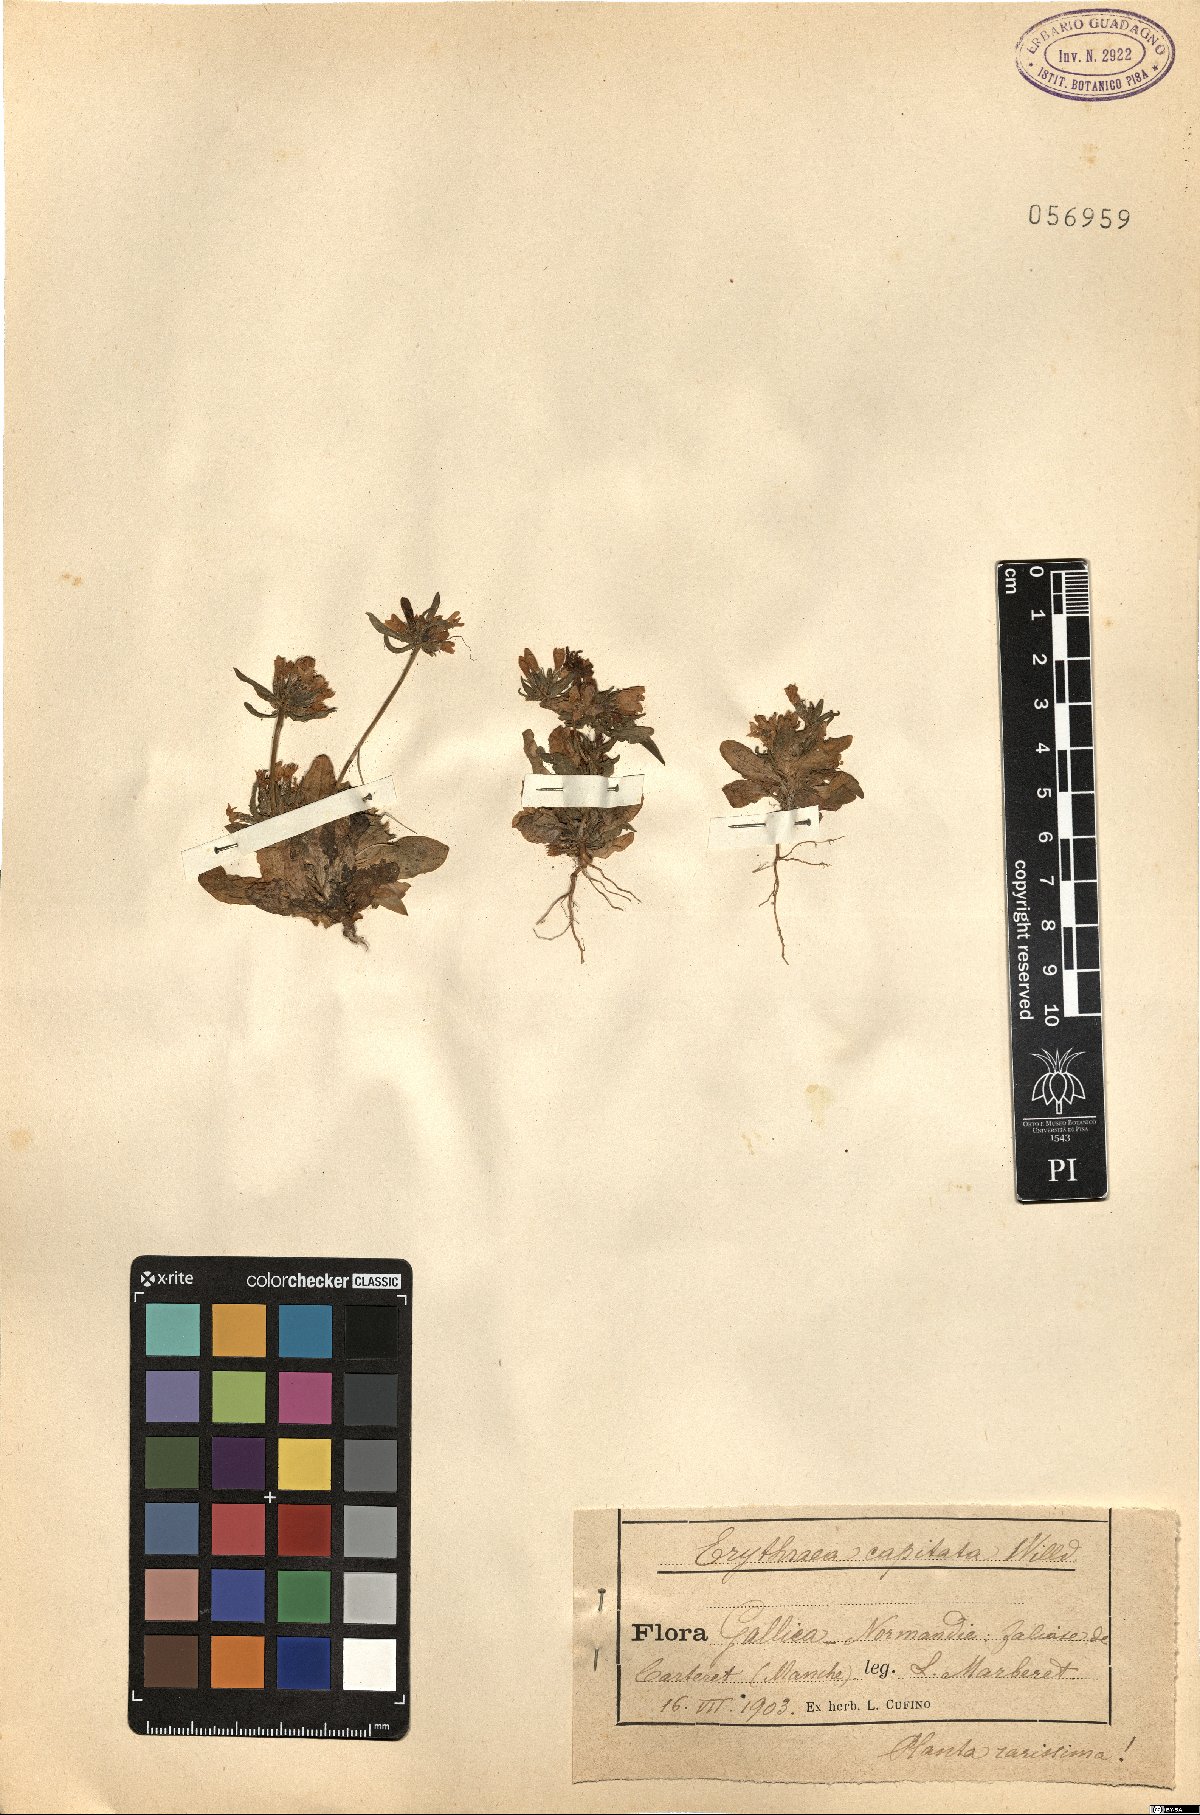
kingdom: Plantae
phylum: Tracheophyta
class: Magnoliopsida
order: Gentianales
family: Gentianaceae
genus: Centaurium
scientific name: Centaurium erythraea
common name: Common centaury
